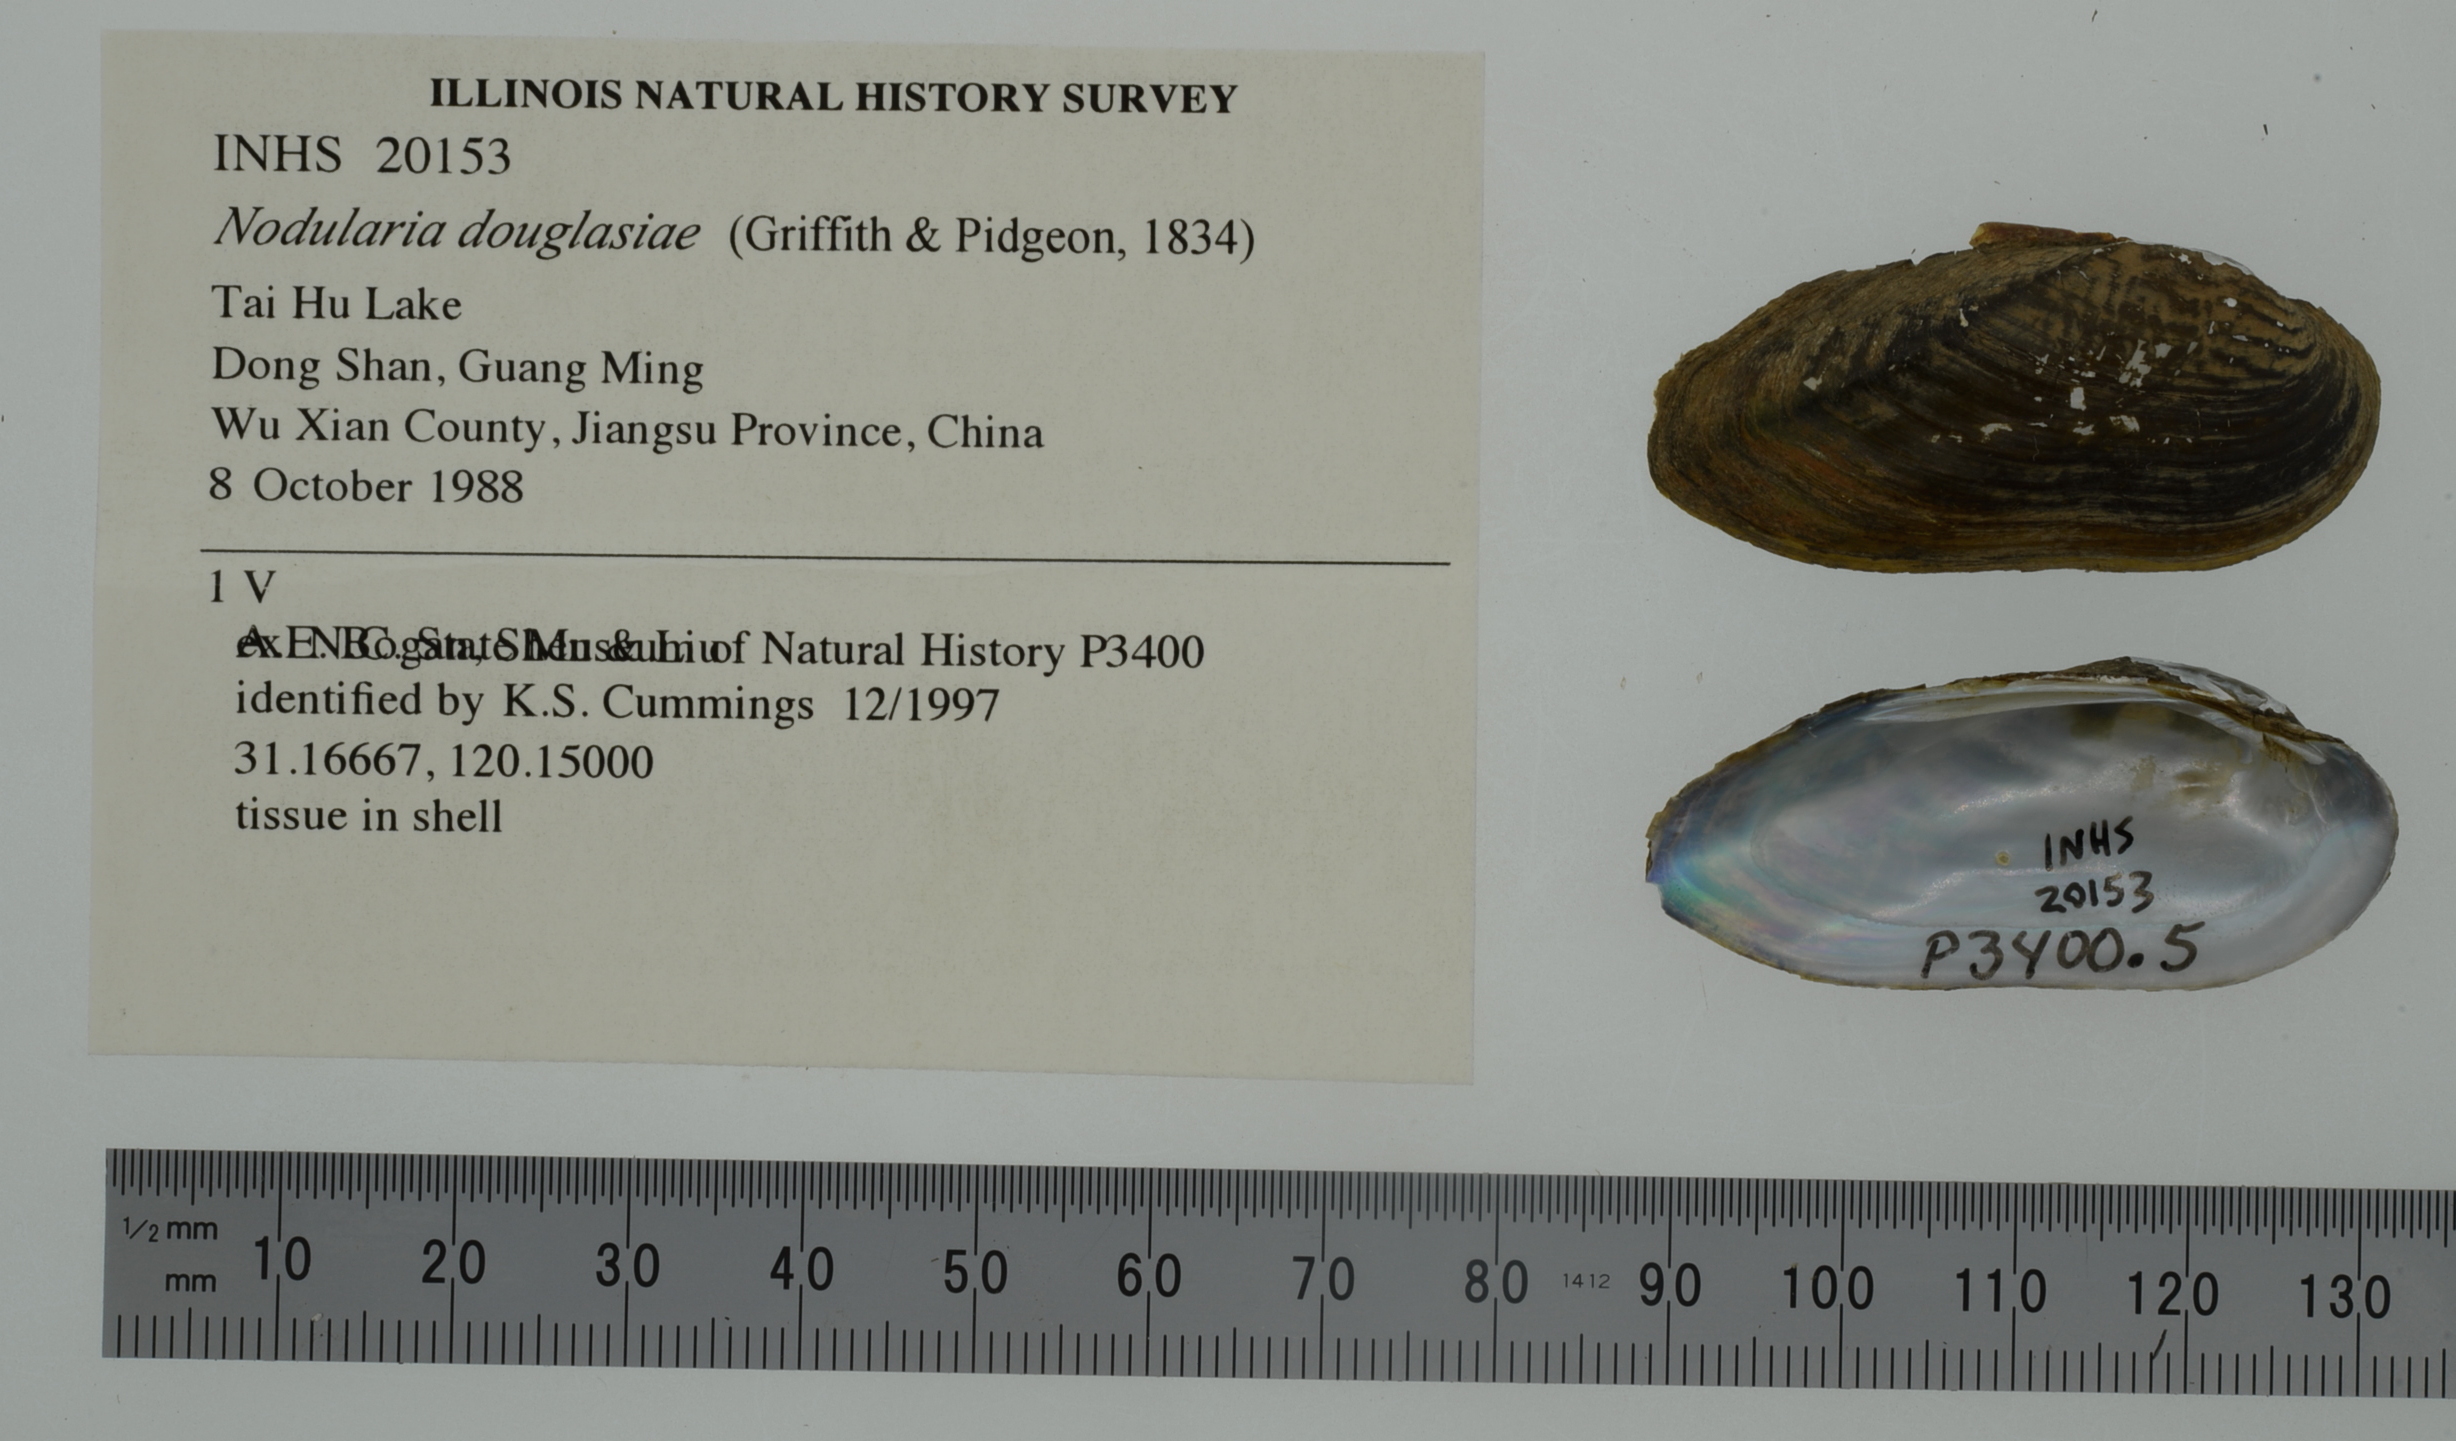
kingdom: Animalia
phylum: Mollusca
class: Bivalvia
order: Unionida
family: Unionidae
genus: Nodularia
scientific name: Nodularia douglasiae
